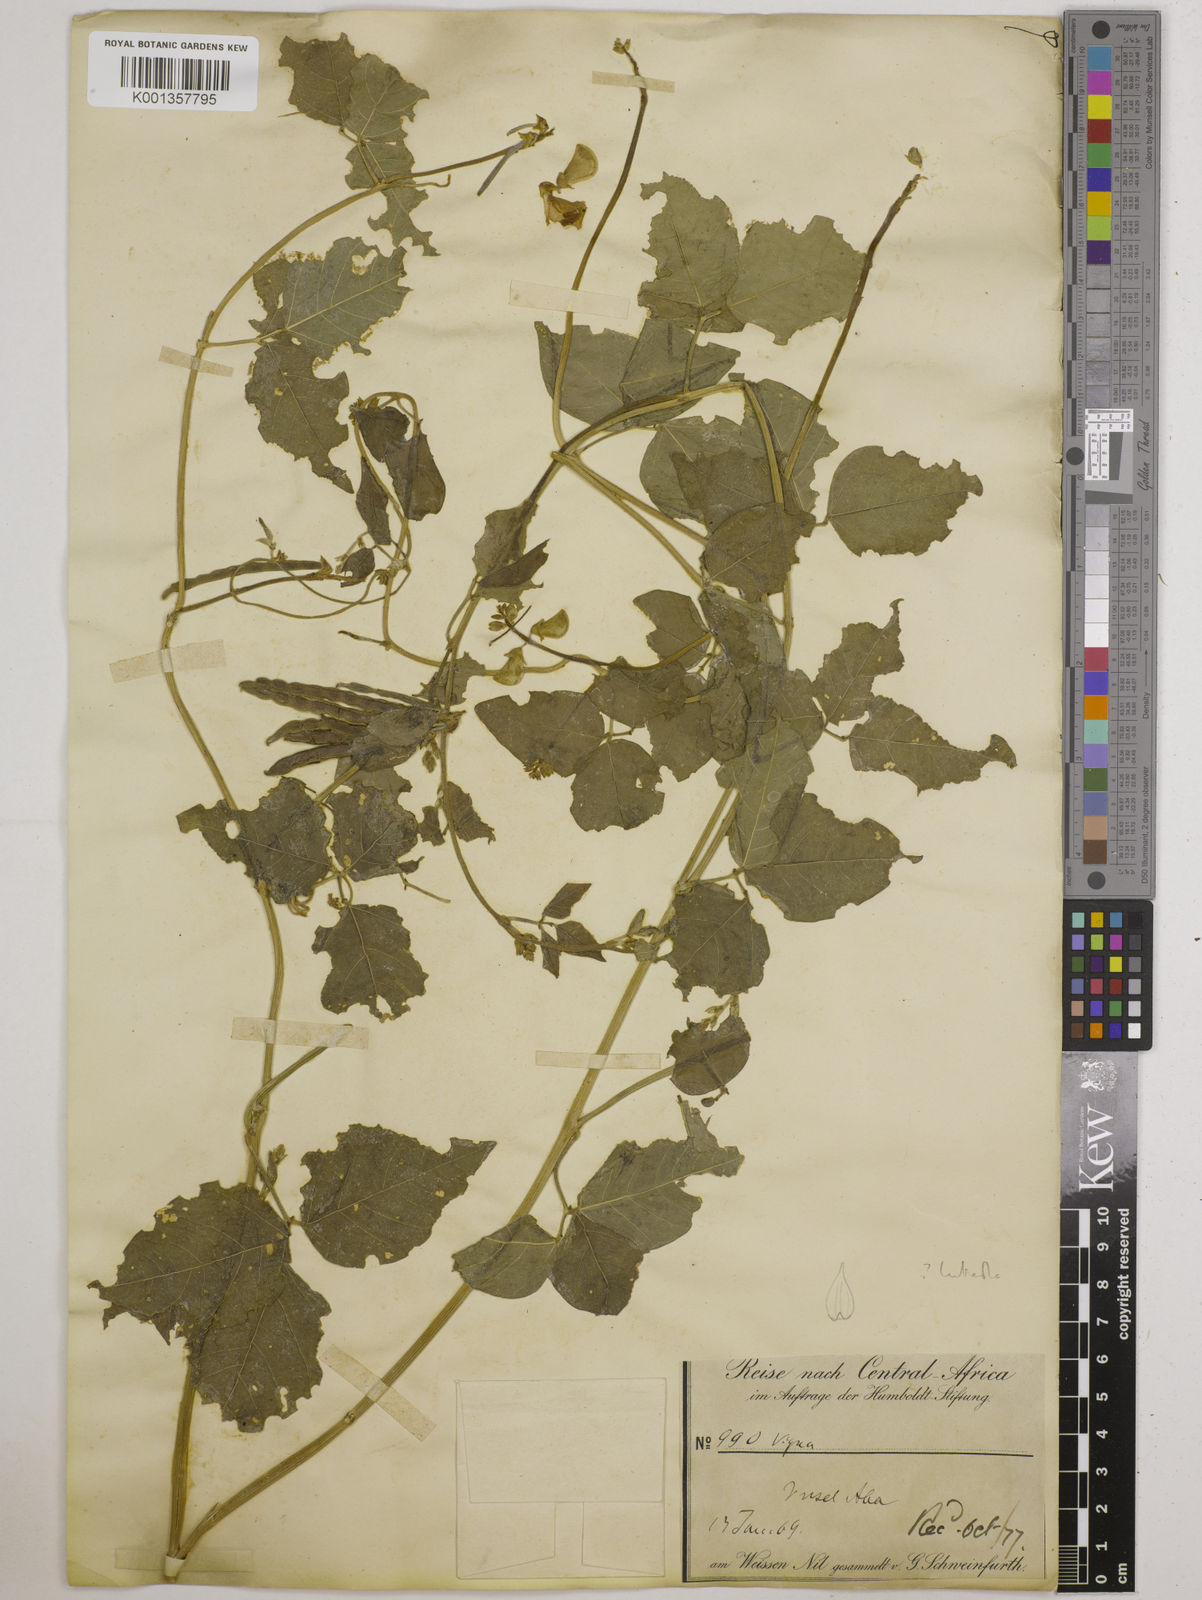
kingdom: Plantae
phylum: Tracheophyta
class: Magnoliopsida
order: Fabales
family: Fabaceae
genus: Vigna
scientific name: Vigna luteola
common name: Hairypod cowpea
